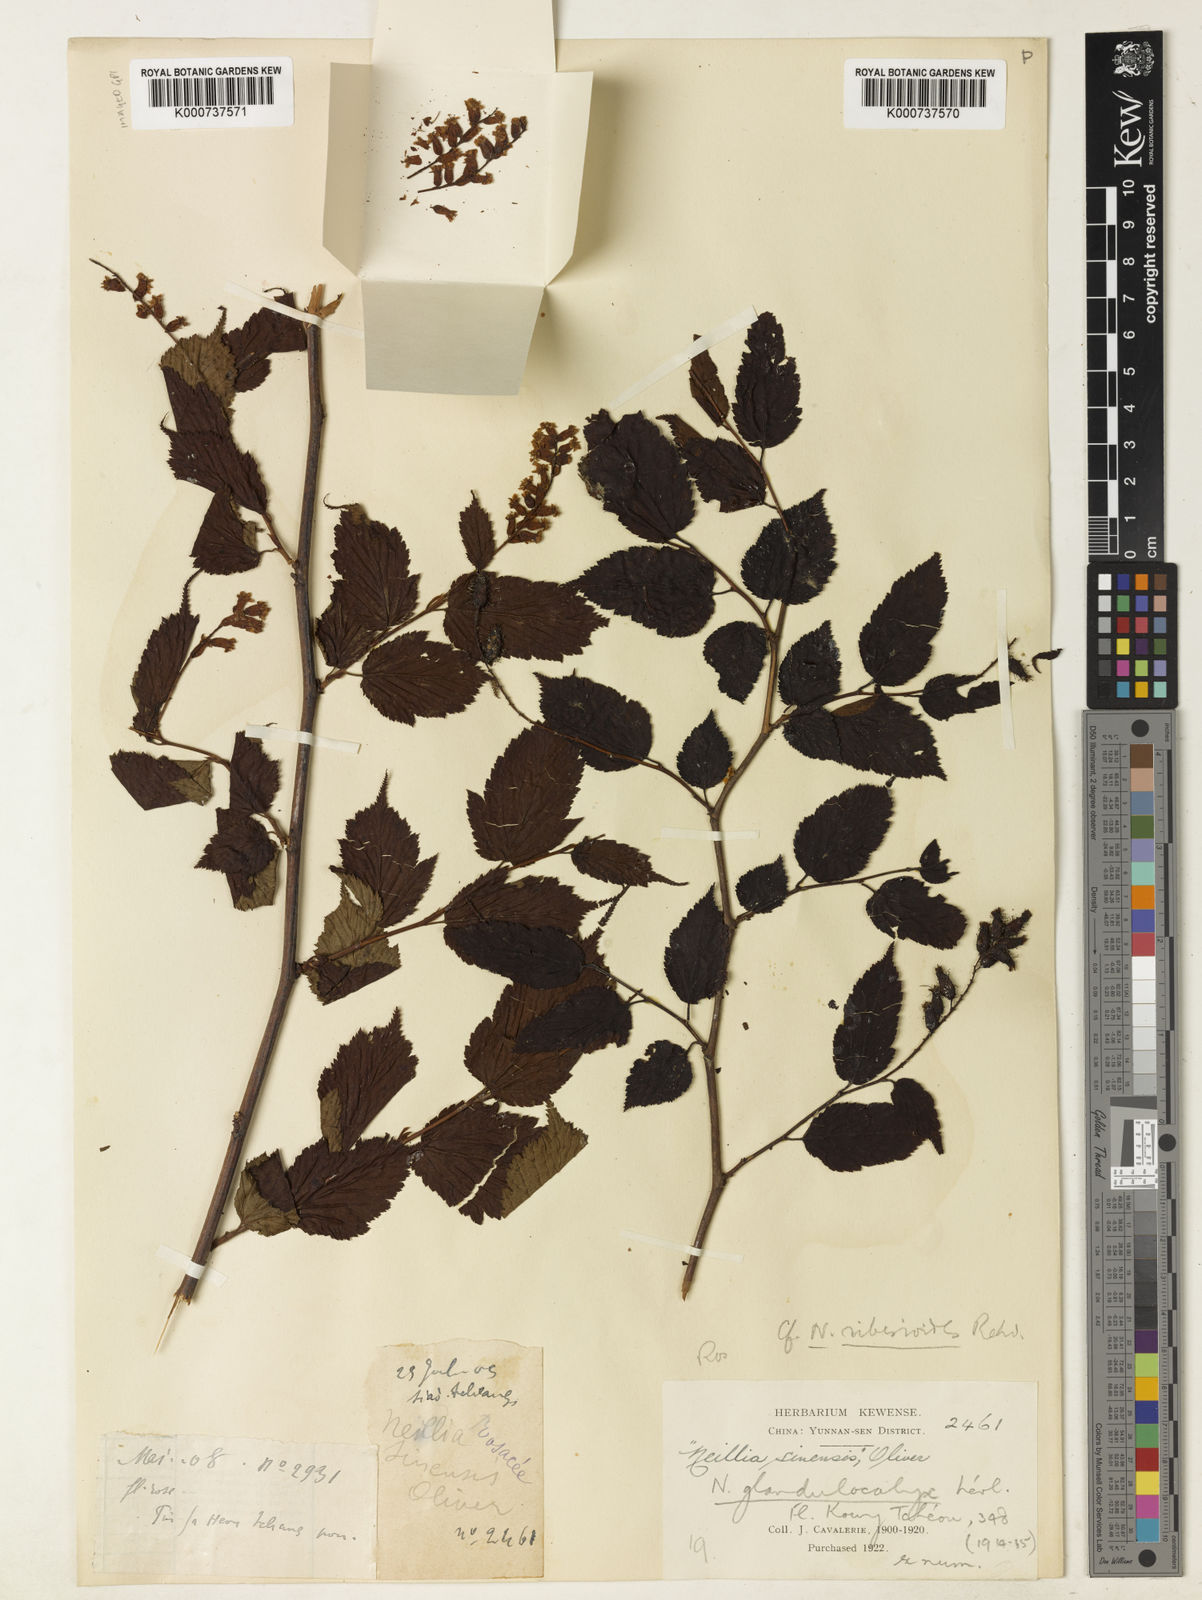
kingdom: Plantae
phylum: Tracheophyta
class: Magnoliopsida
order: Rosales
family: Rosaceae
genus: Neillia
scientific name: Neillia
